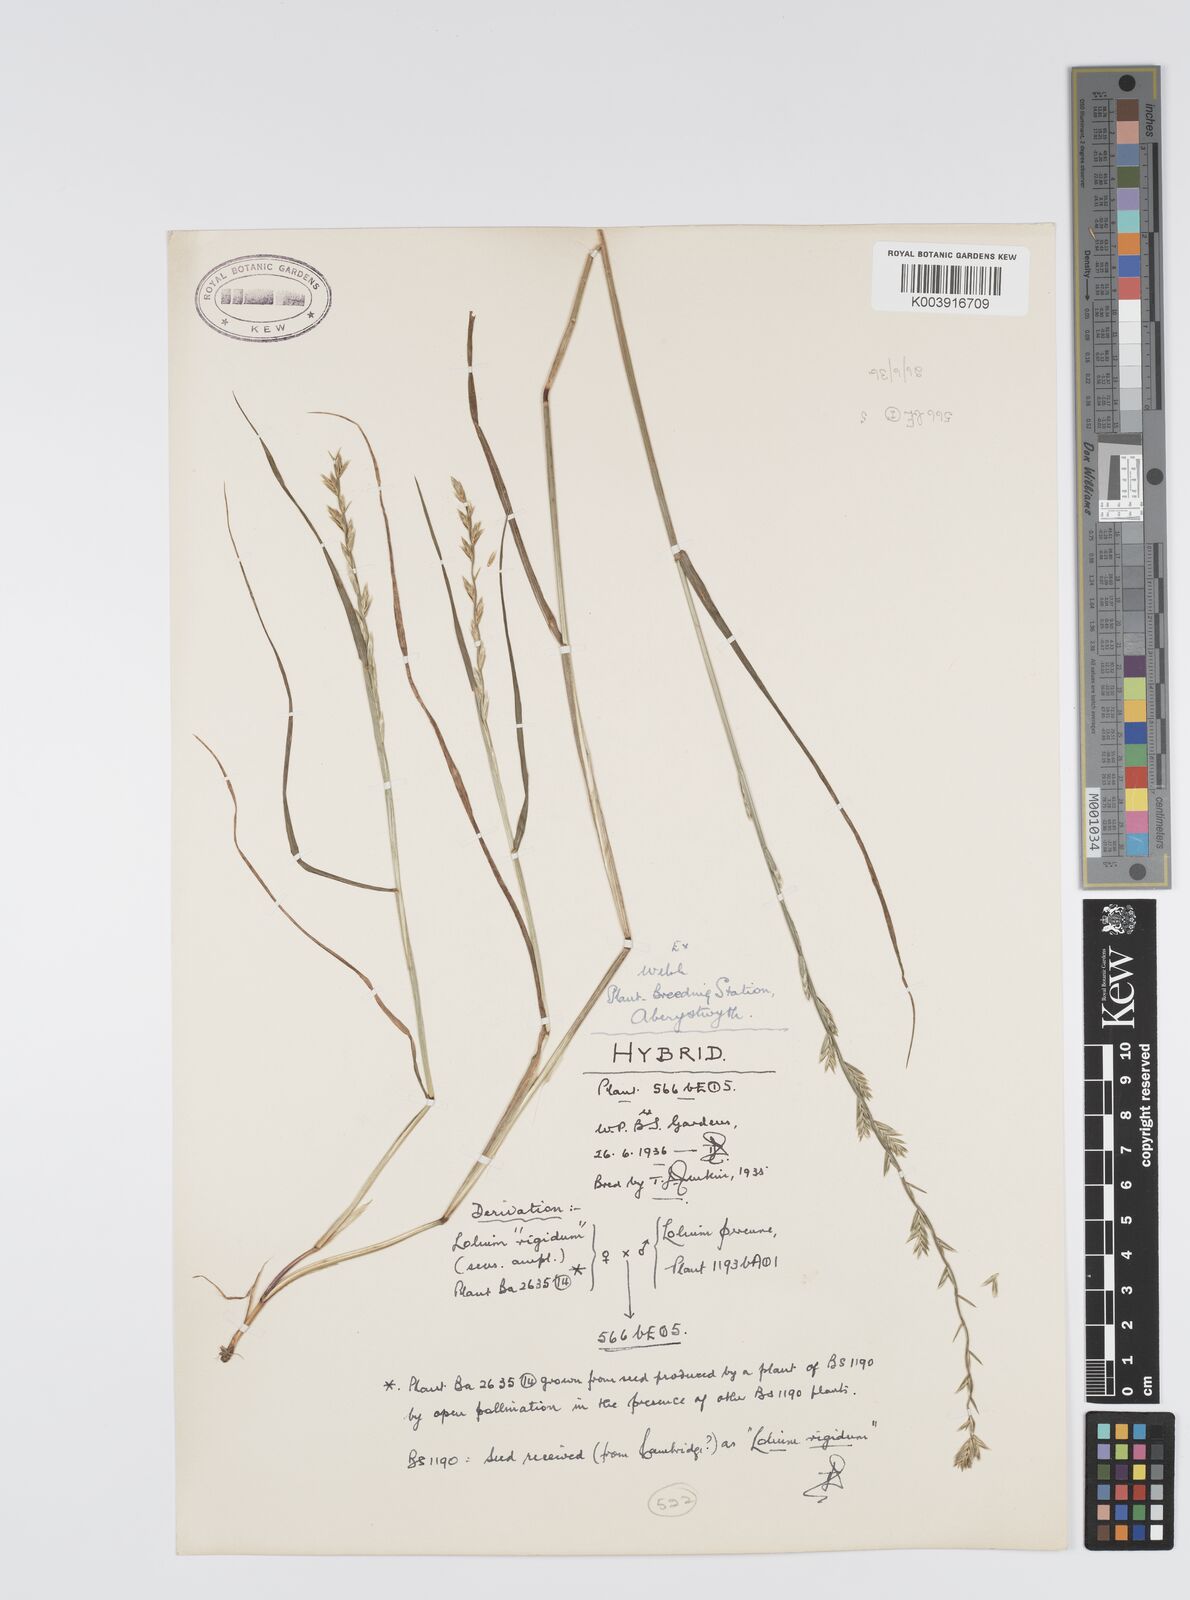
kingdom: Plantae
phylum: Tracheophyta
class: Liliopsida
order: Poales
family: Poaceae
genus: Lolium
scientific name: Lolium perenne
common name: Perennial ryegrass
